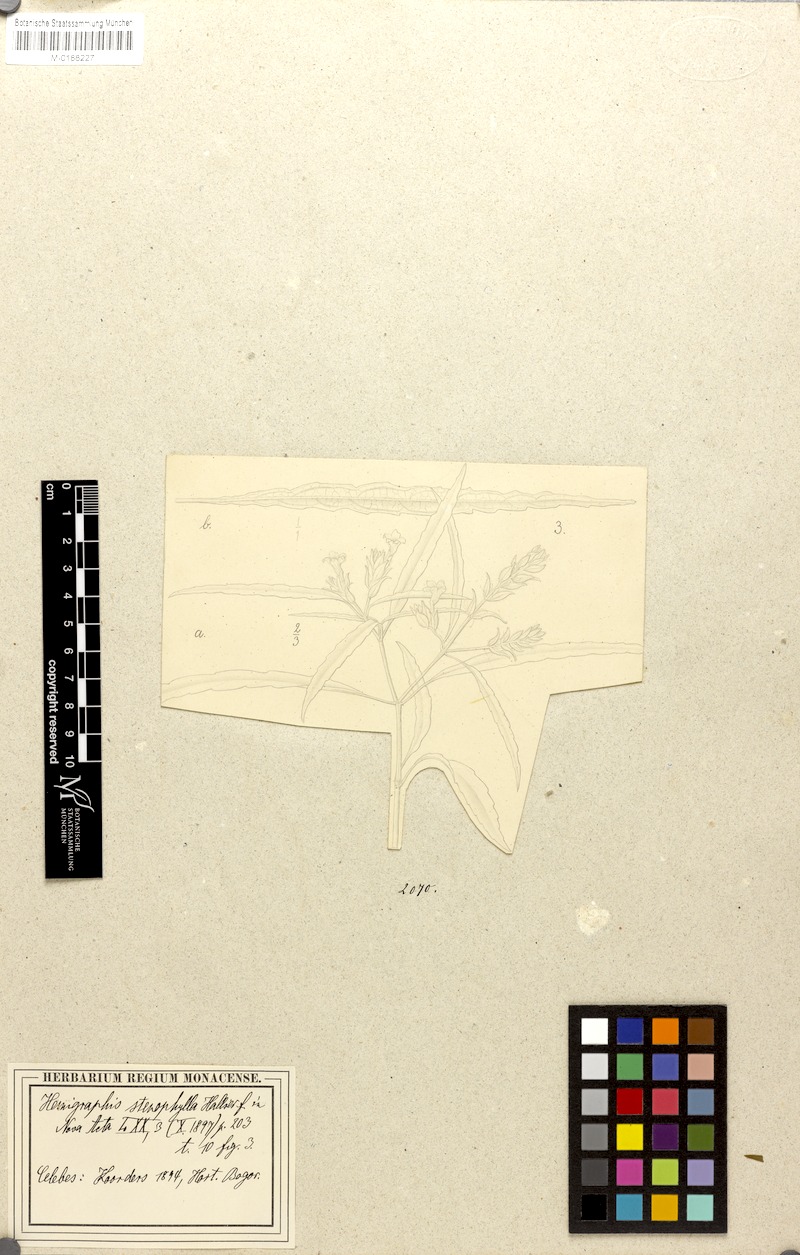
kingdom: Plantae
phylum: Tracheophyta
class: Magnoliopsida
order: Lamiales
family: Acanthaceae
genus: Hemigraphis
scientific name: Hemigraphis stenophylla
